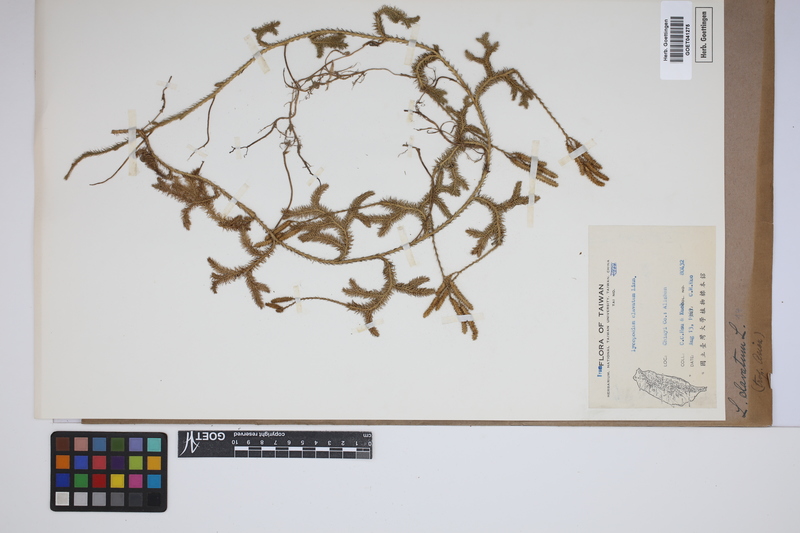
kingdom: Plantae
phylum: Tracheophyta
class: Lycopodiopsida
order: Lycopodiales
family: Lycopodiaceae
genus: Lycopodium
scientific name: Lycopodium clavatum
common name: Stag's-horn clubmoss
